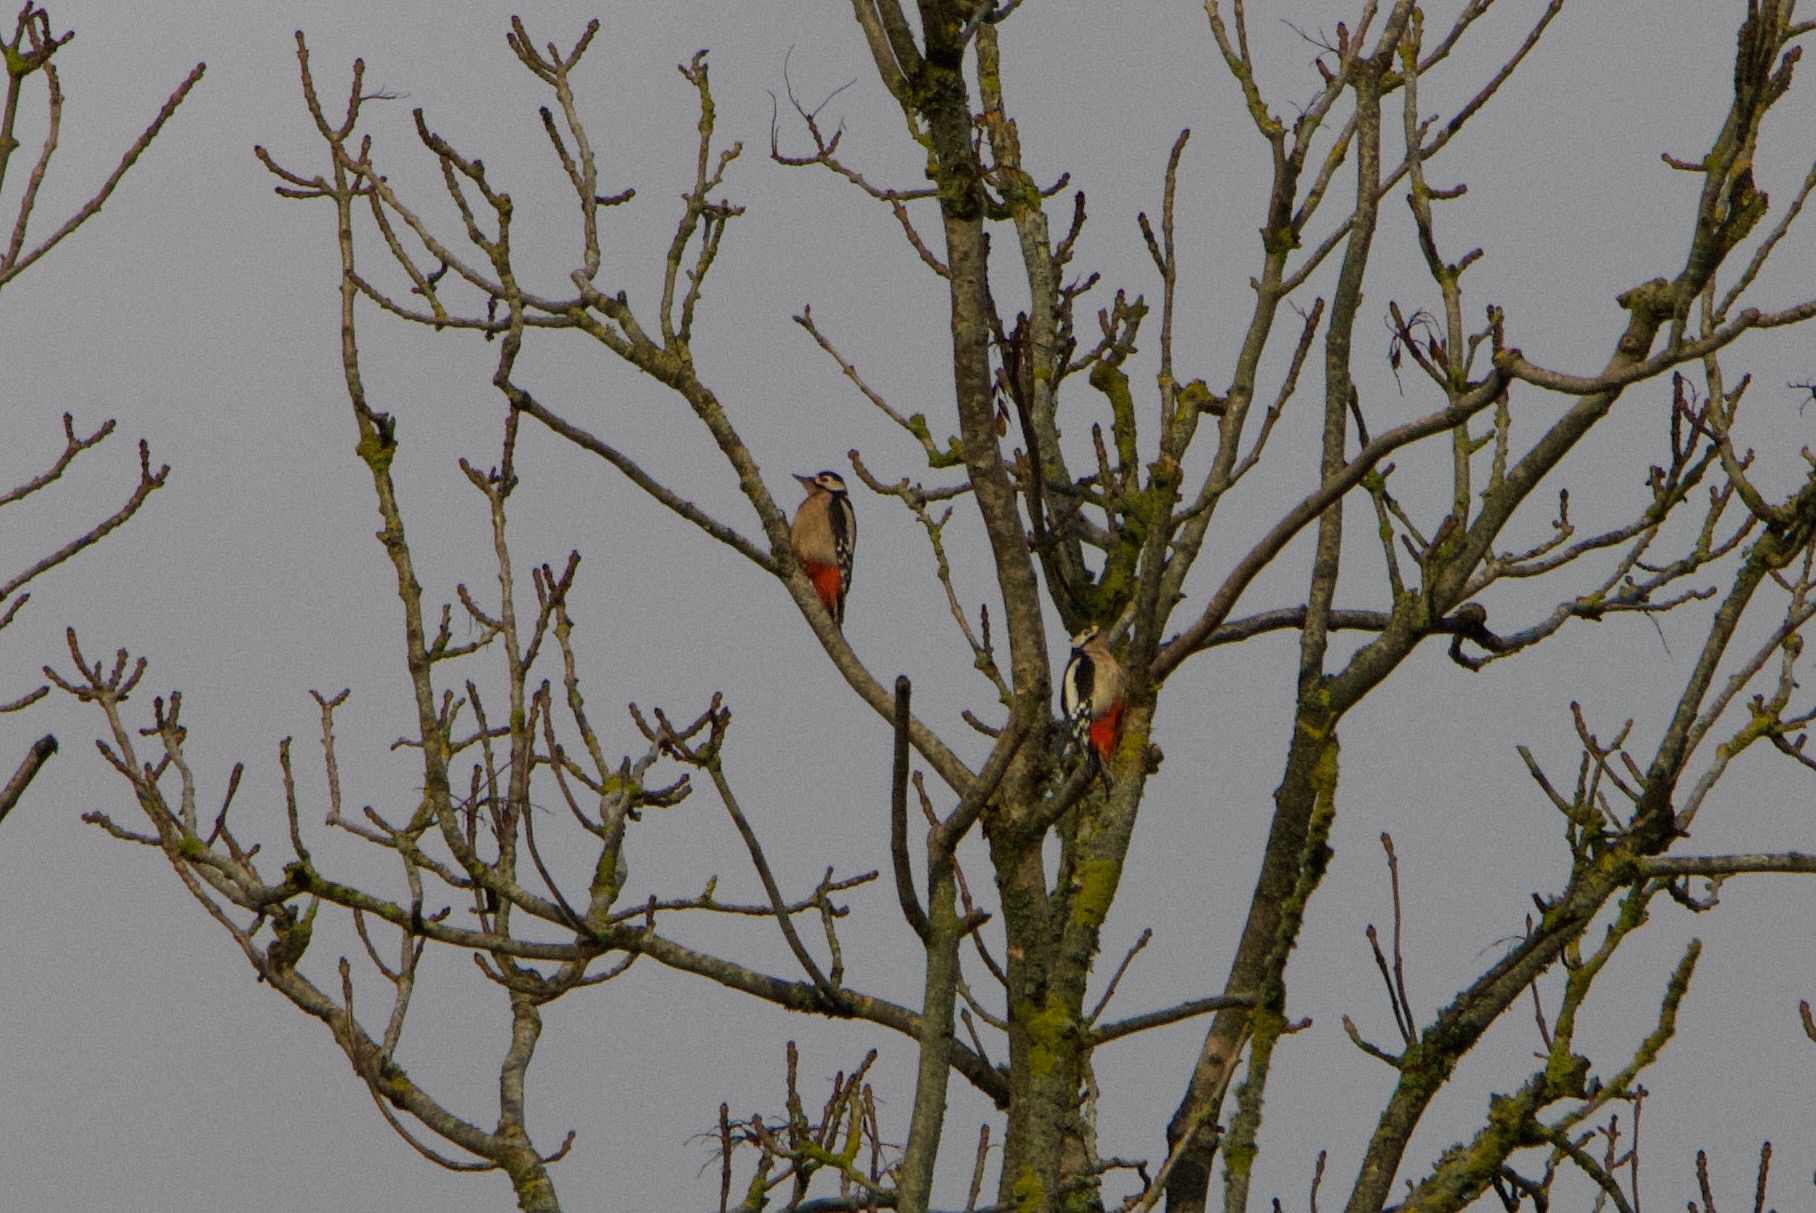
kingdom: Animalia
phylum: Chordata
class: Aves
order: Piciformes
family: Picidae
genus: Dendrocopos
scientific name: Dendrocopos major
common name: Stor flagspætte
